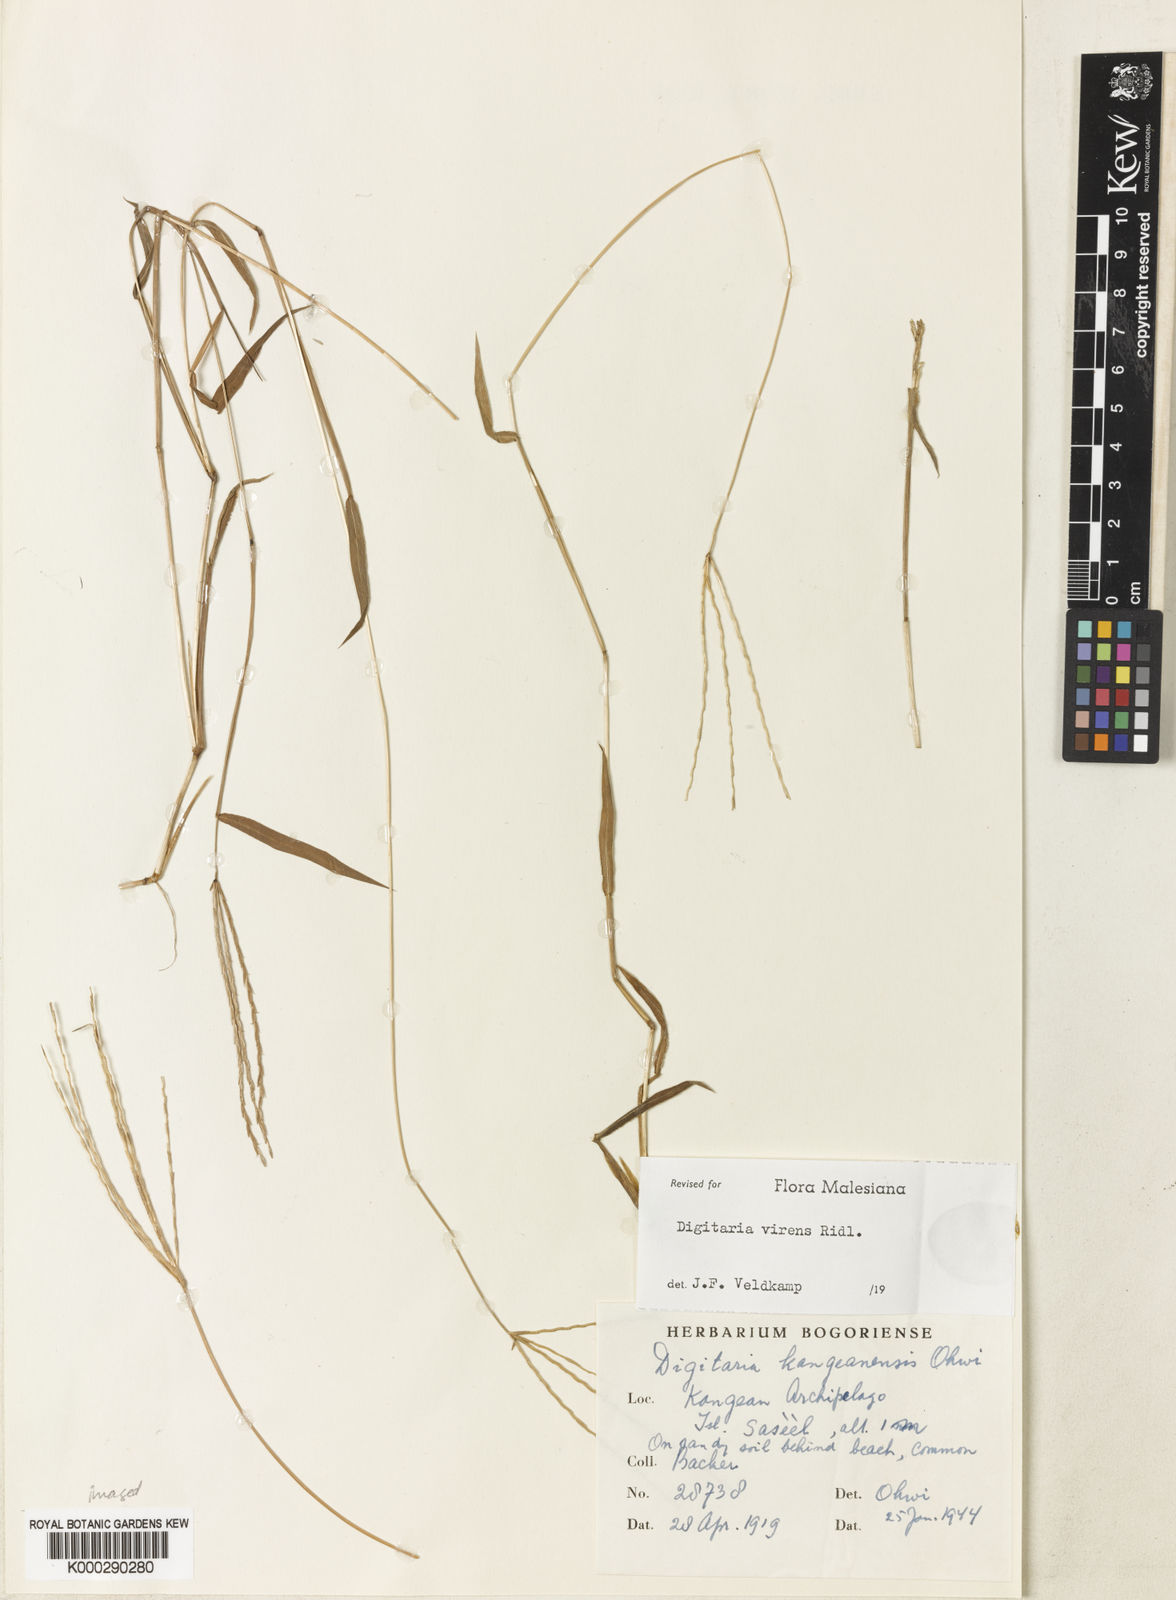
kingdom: Plantae
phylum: Tracheophyta
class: Liliopsida
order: Poales
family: Poaceae
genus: Digitaria
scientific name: Digitaria mariannensis
